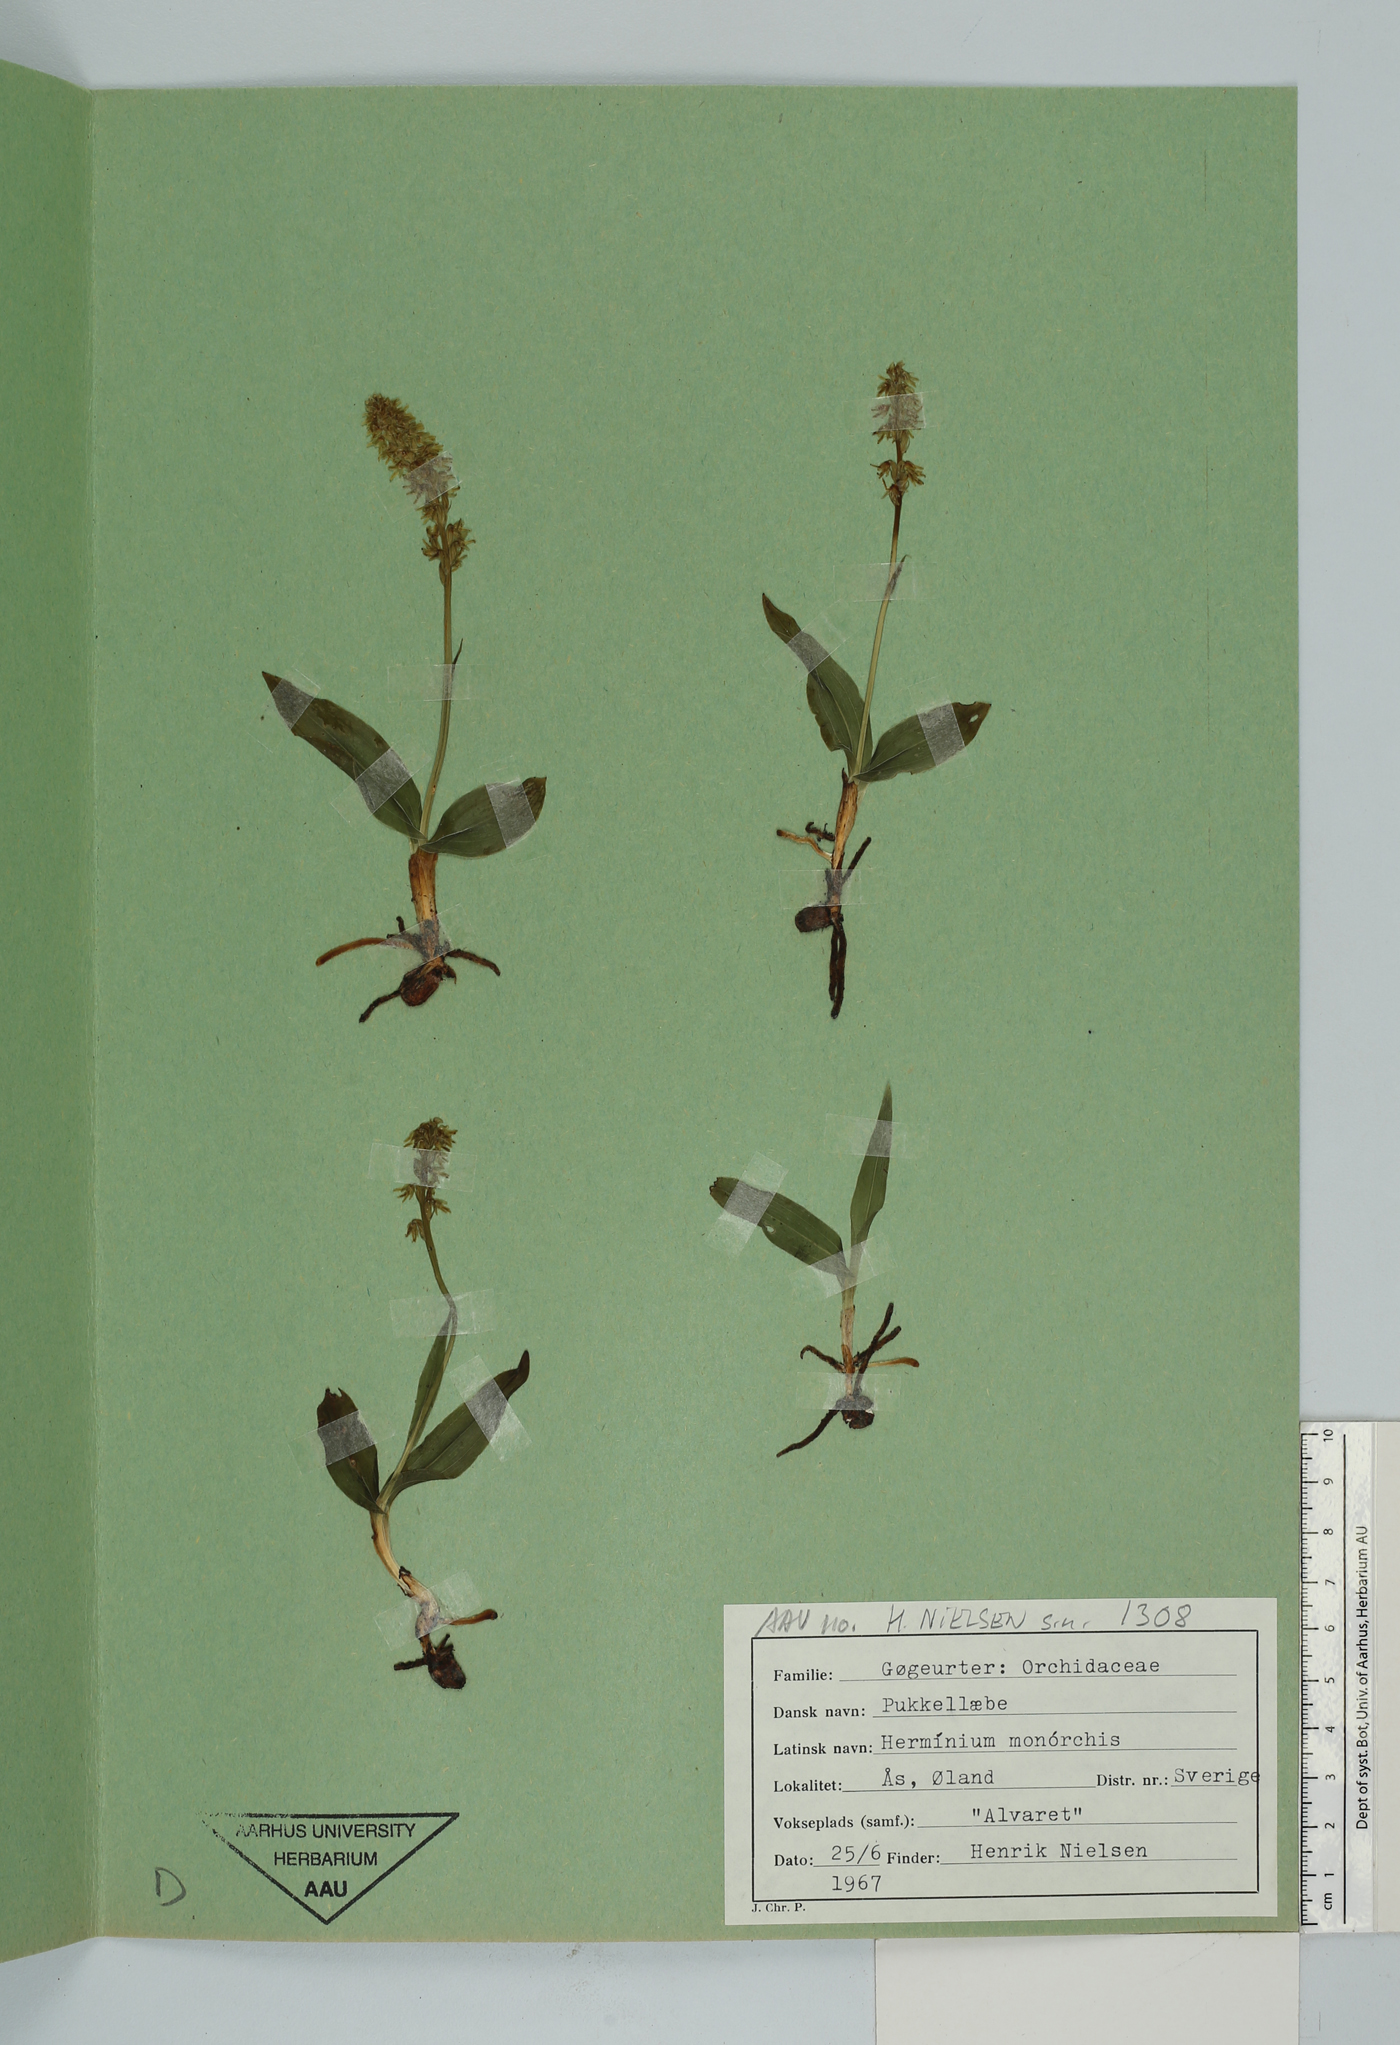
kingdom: Plantae
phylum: Tracheophyta
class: Liliopsida
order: Asparagales
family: Orchidaceae
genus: Herminium
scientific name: Herminium monorchis
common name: Musk orchid
